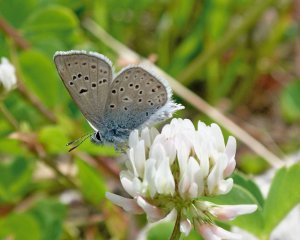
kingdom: Animalia
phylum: Arthropoda
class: Insecta
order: Lepidoptera
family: Lycaenidae
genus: Glaucopsyche
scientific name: Glaucopsyche lygdamus
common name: Silvery Blue
